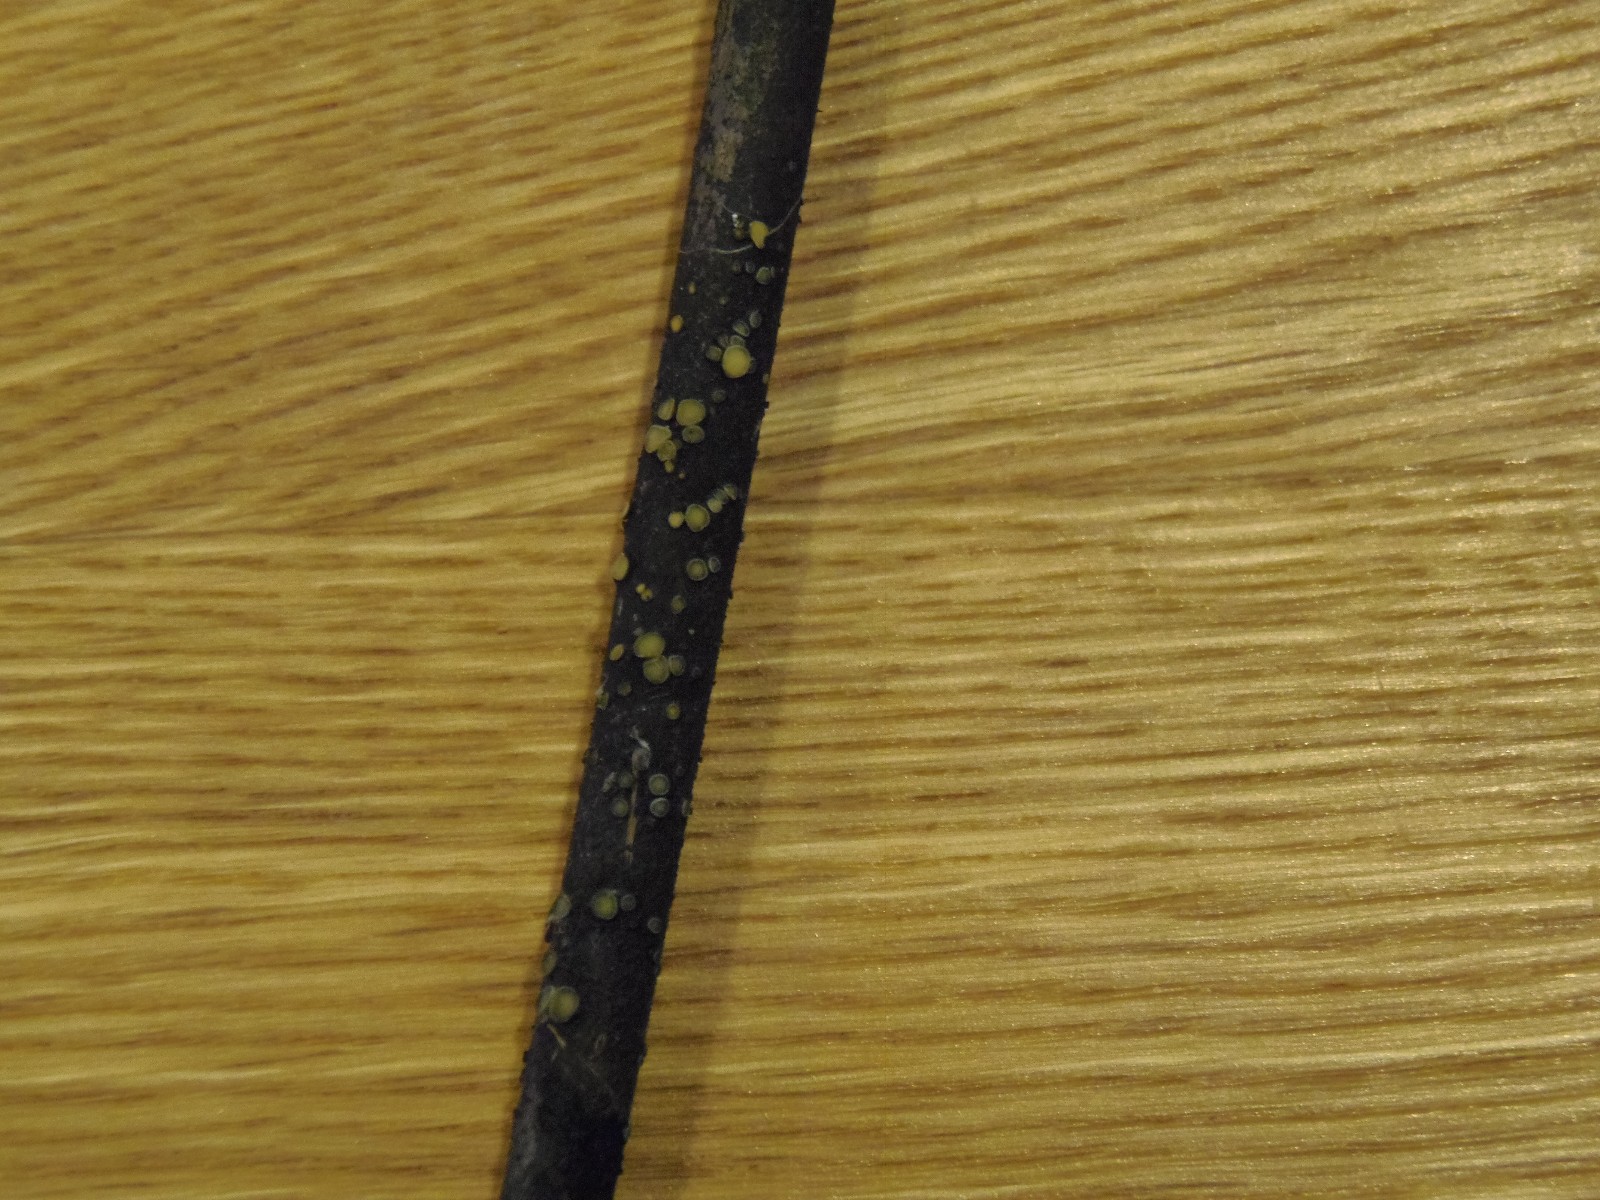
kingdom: Fungi
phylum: Ascomycota
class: Leotiomycetes
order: Helotiales
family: Mollisiaceae
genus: Trichobelonium
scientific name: Trichobelonium kneiffii
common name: tagrør-gråskive
